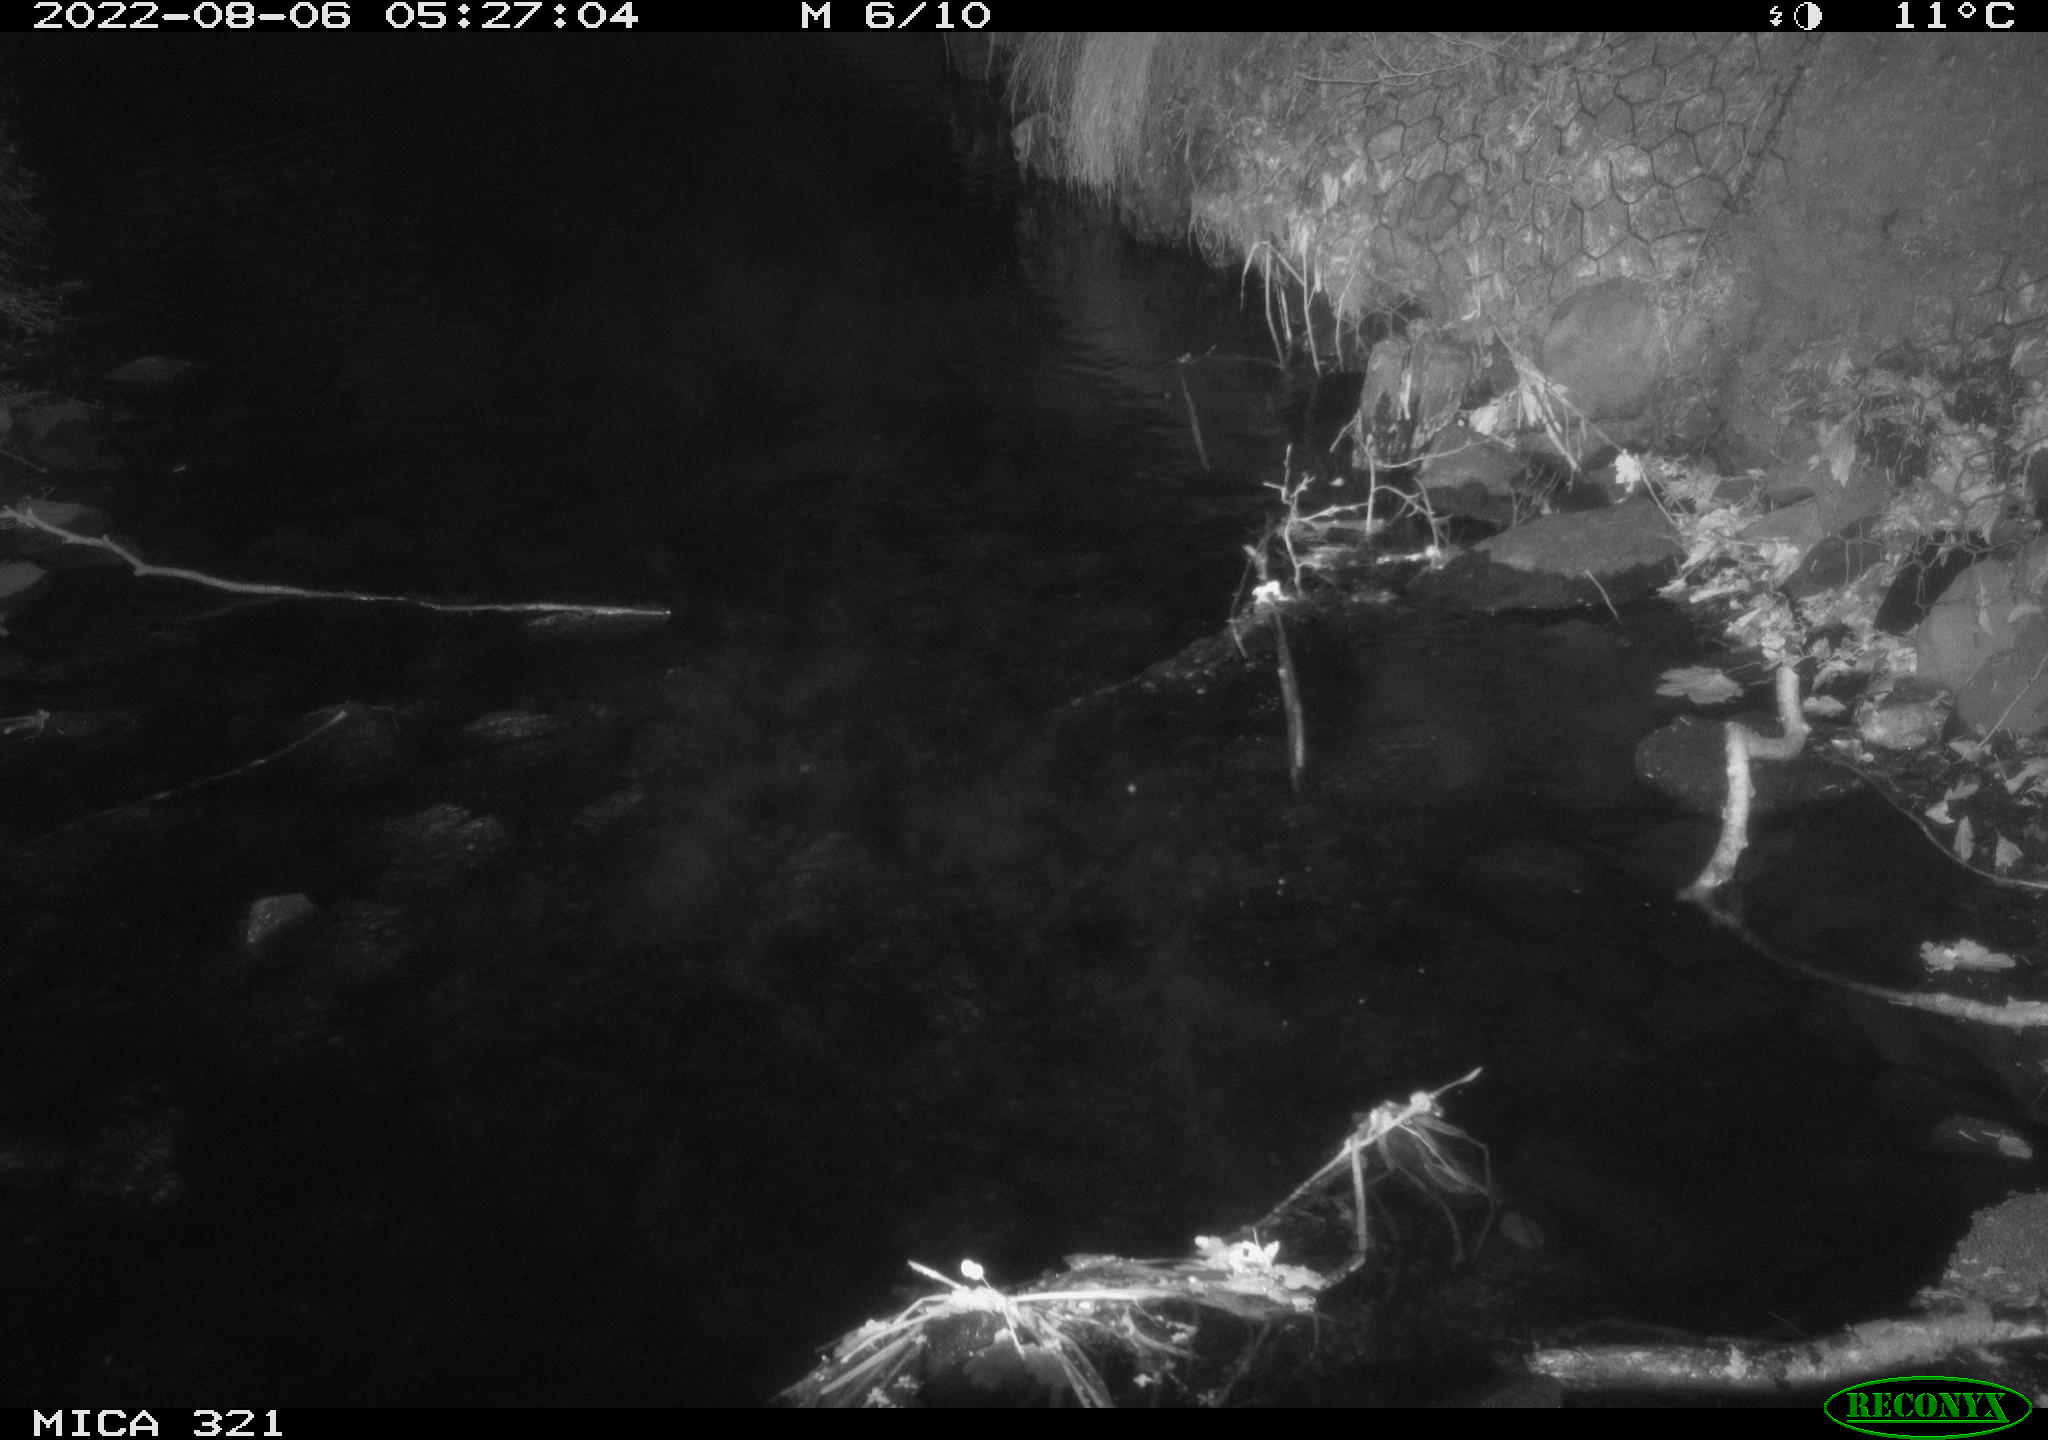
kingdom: Animalia
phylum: Chordata
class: Aves
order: Anseriformes
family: Anatidae
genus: Anas
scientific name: Anas platyrhynchos
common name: Mallard
